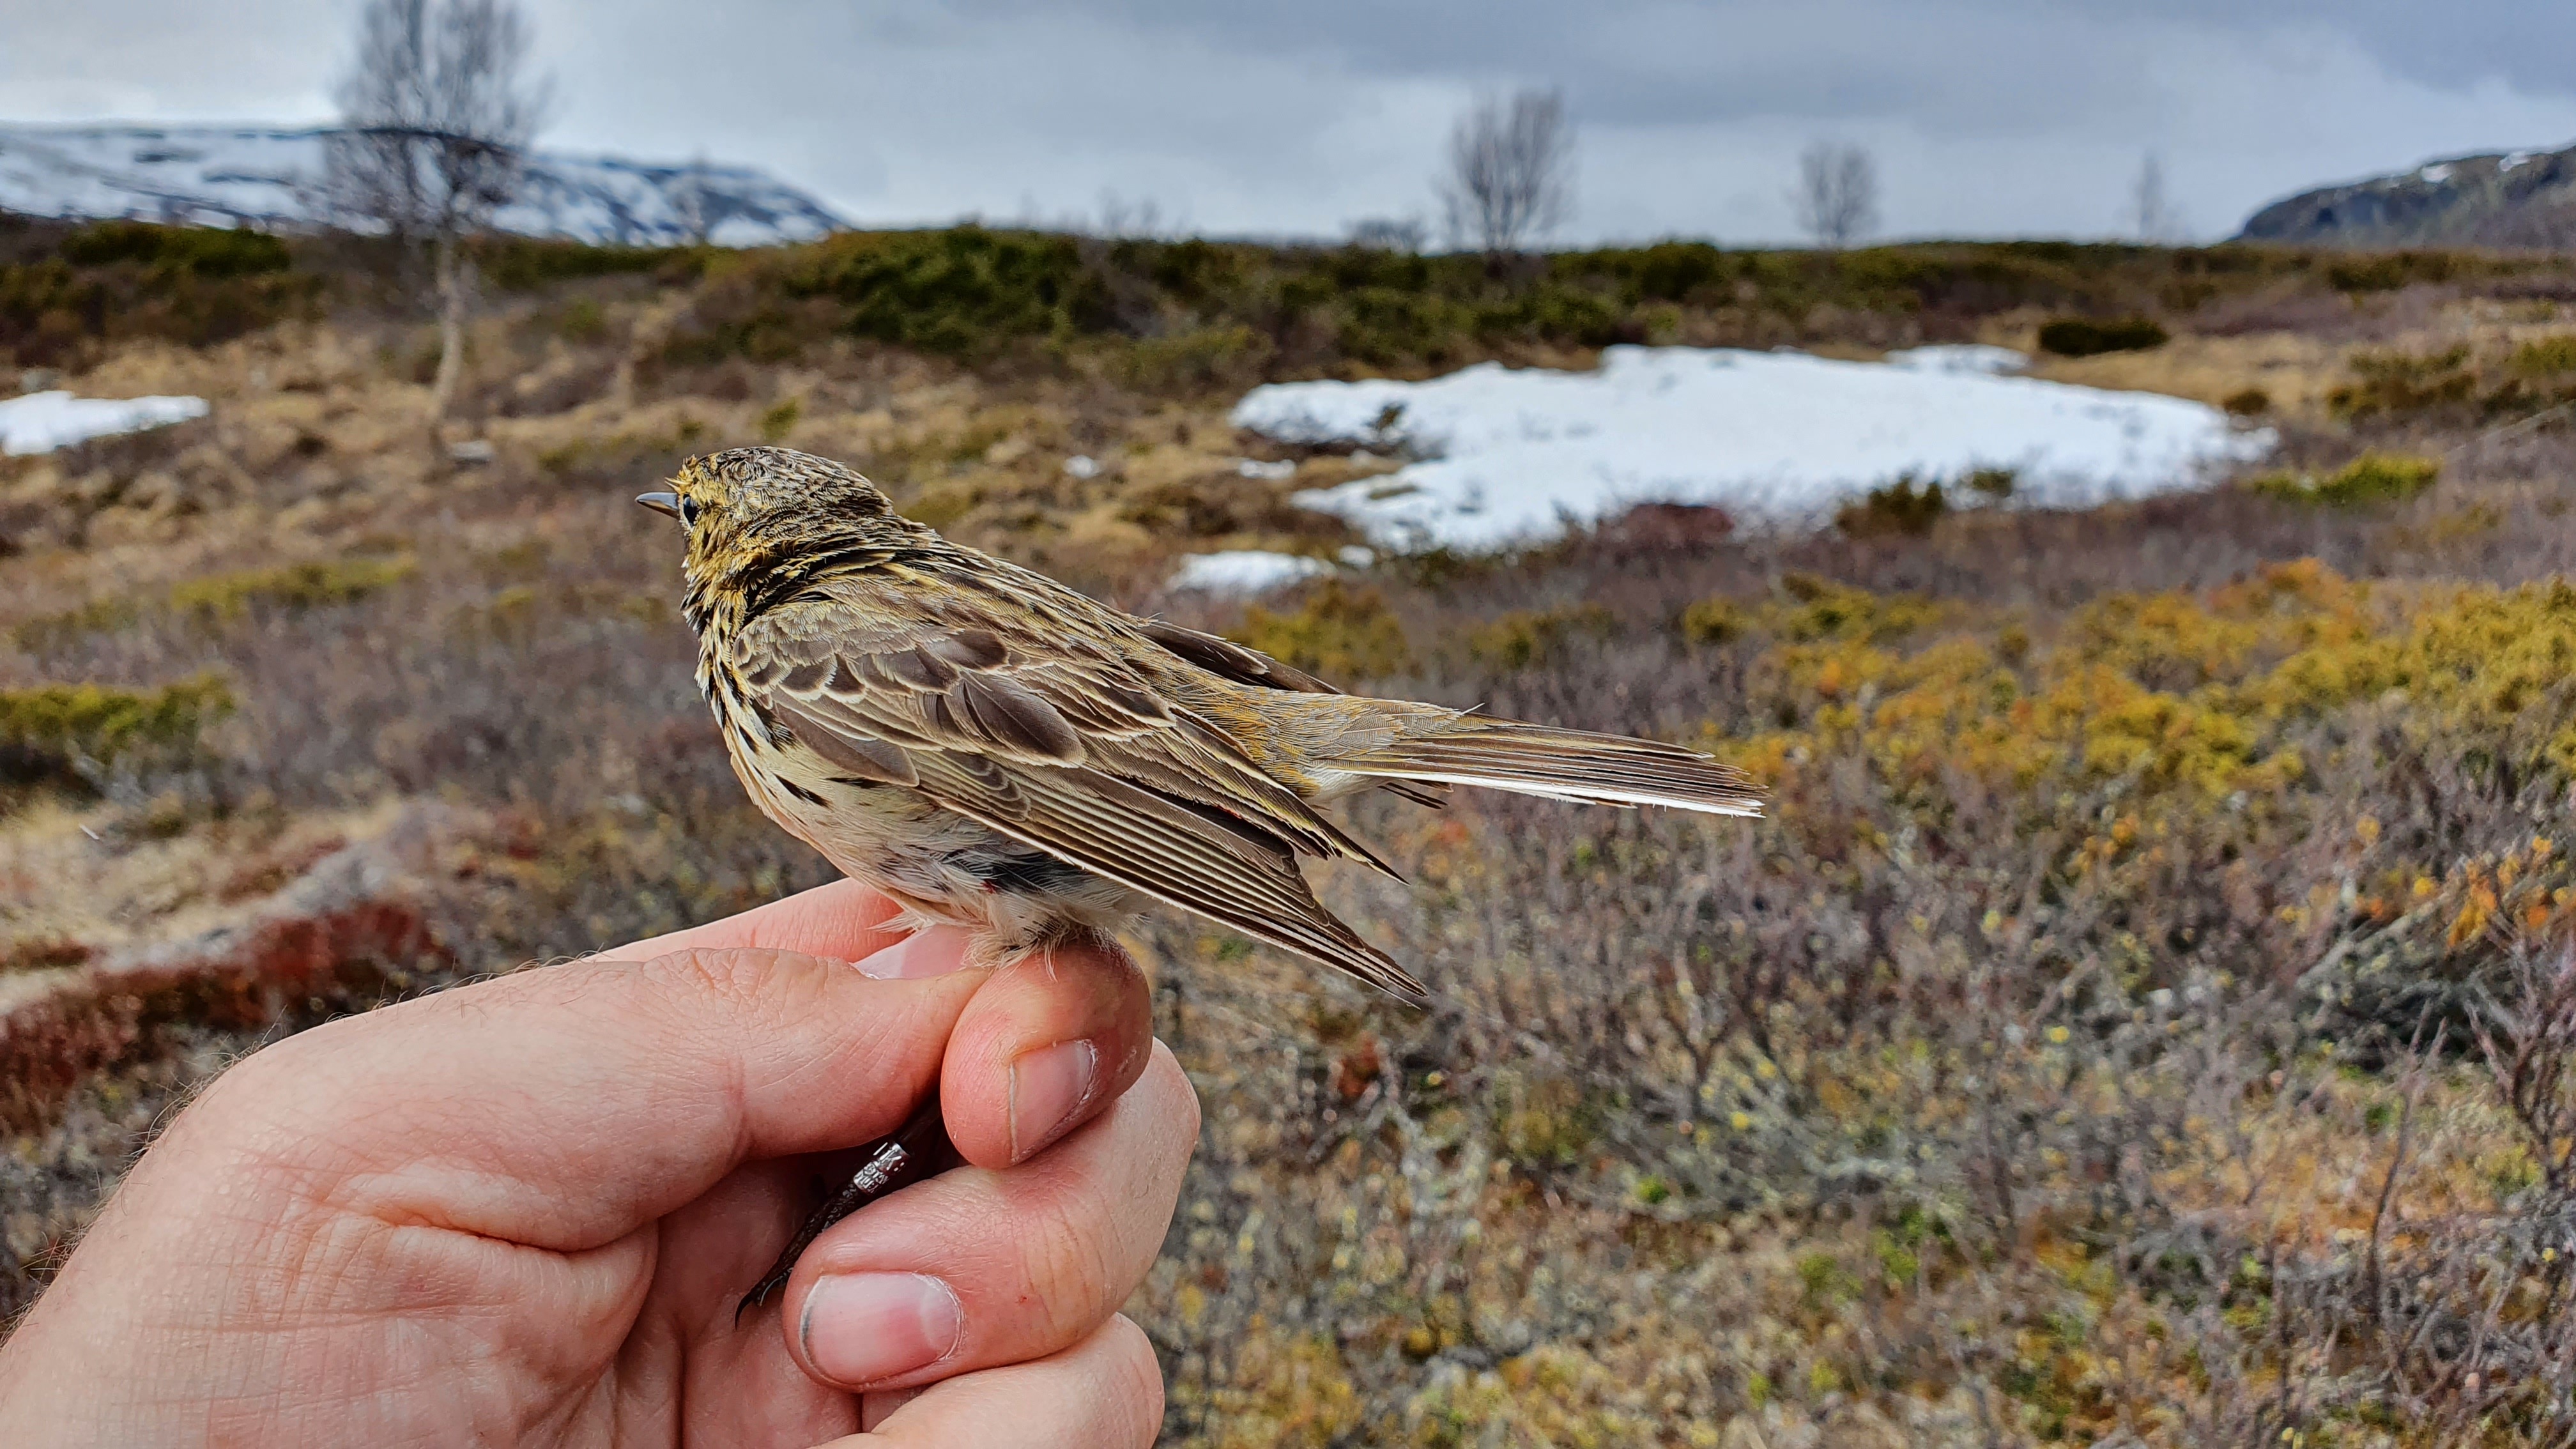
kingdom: Animalia
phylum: Chordata
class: Aves
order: Passeriformes
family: Motacillidae
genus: Anthus
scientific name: Anthus pratensis
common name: Meadow pipit
